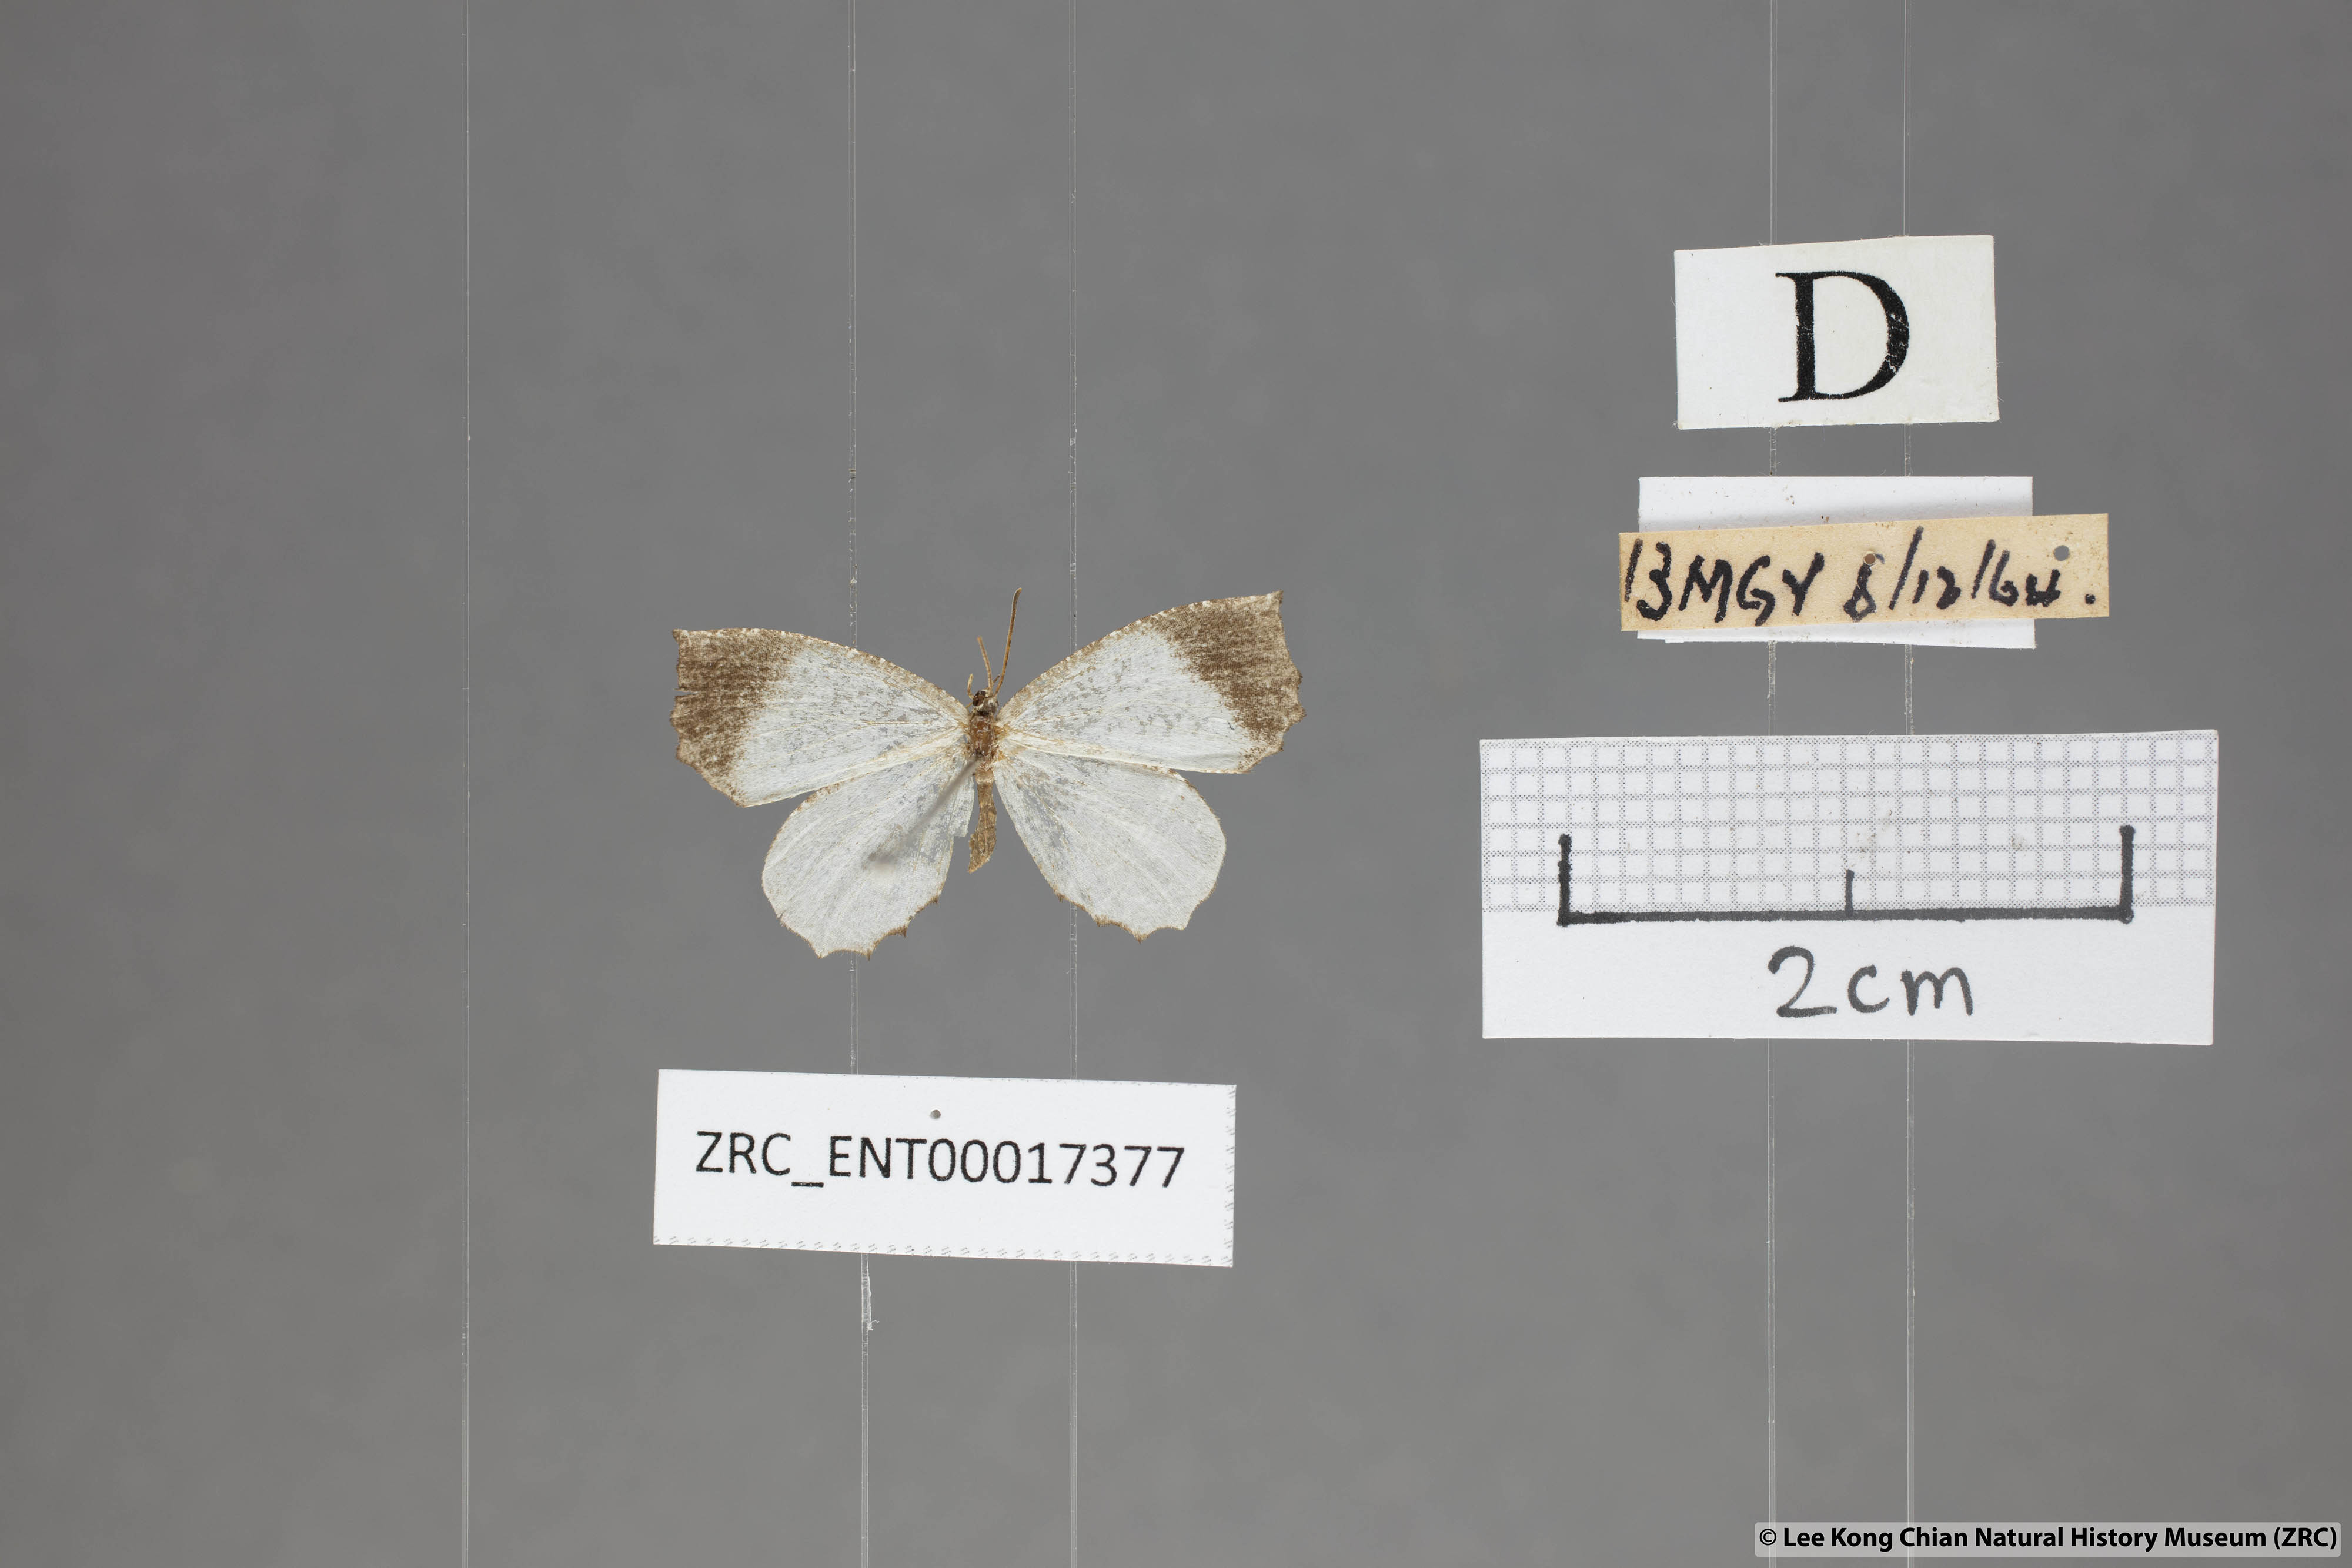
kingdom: Animalia
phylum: Arthropoda
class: Insecta
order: Lepidoptera
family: Lycaenidae
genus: Logania
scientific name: Logania malayica
